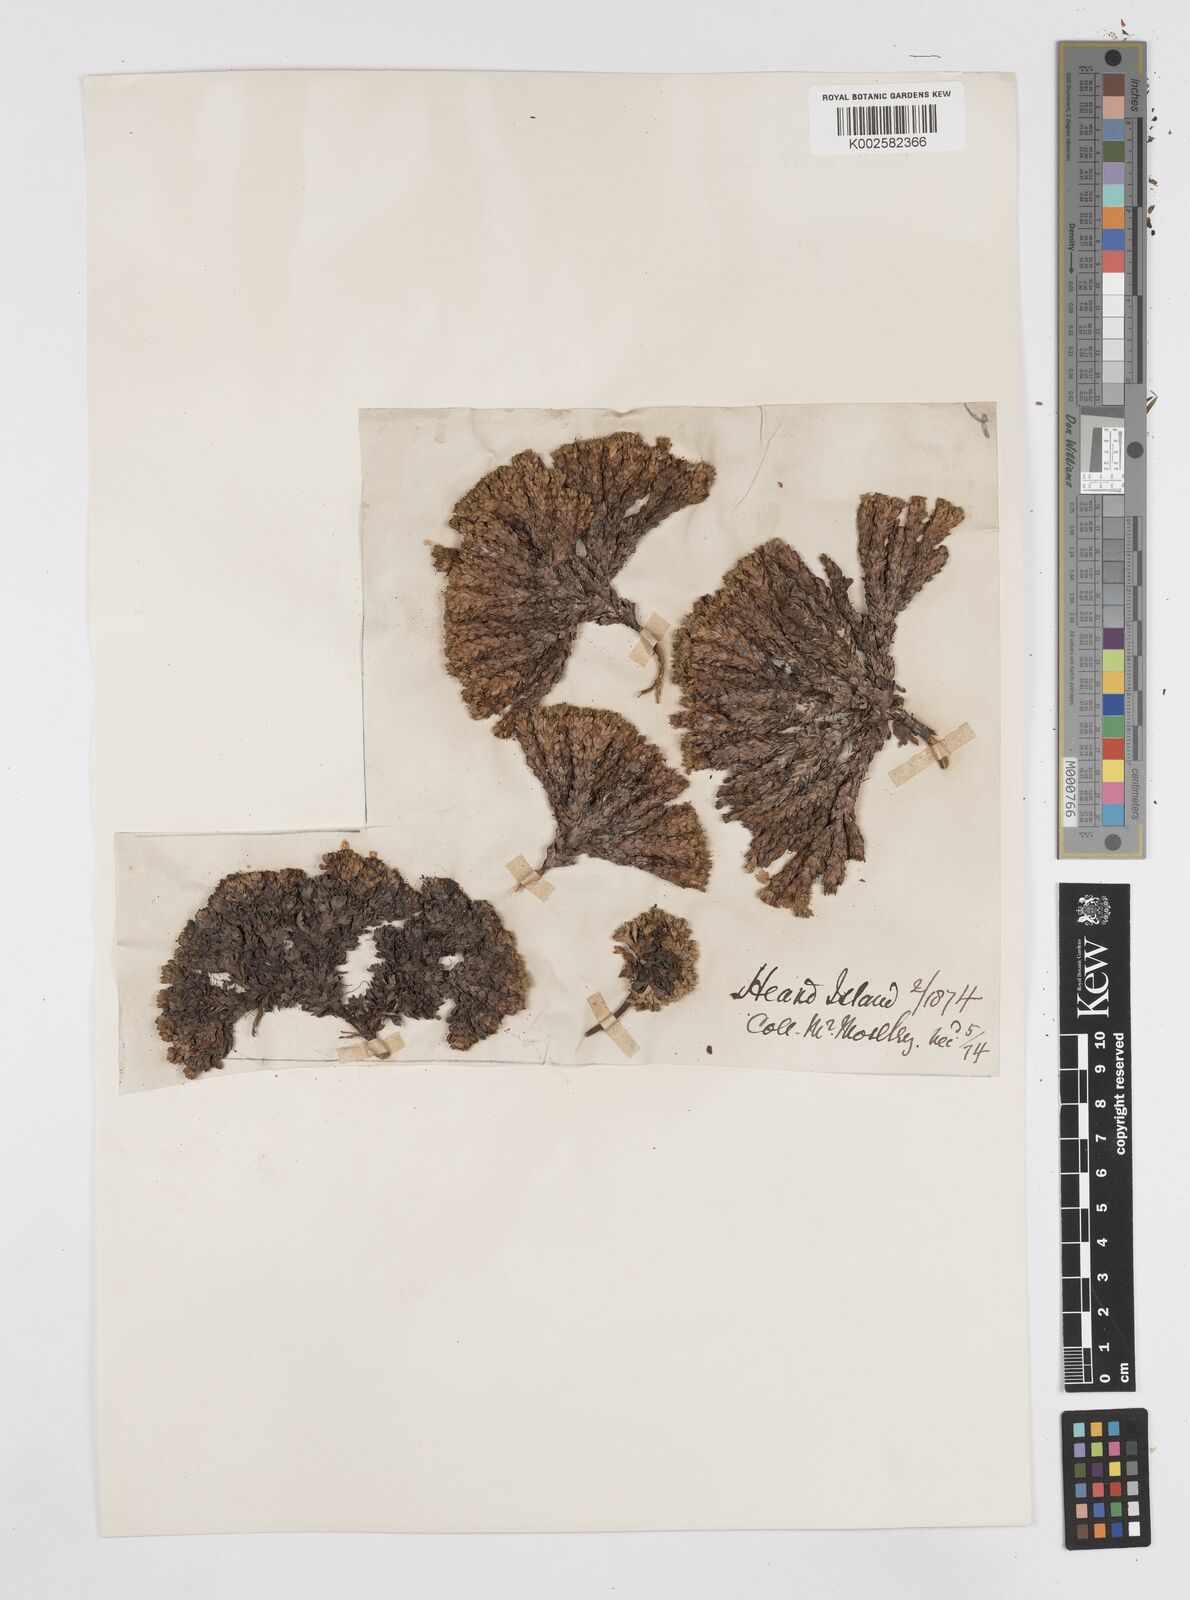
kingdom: Plantae
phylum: Tracheophyta
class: Magnoliopsida
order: Apiales
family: Apiaceae
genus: Azorella
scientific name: Azorella selago
